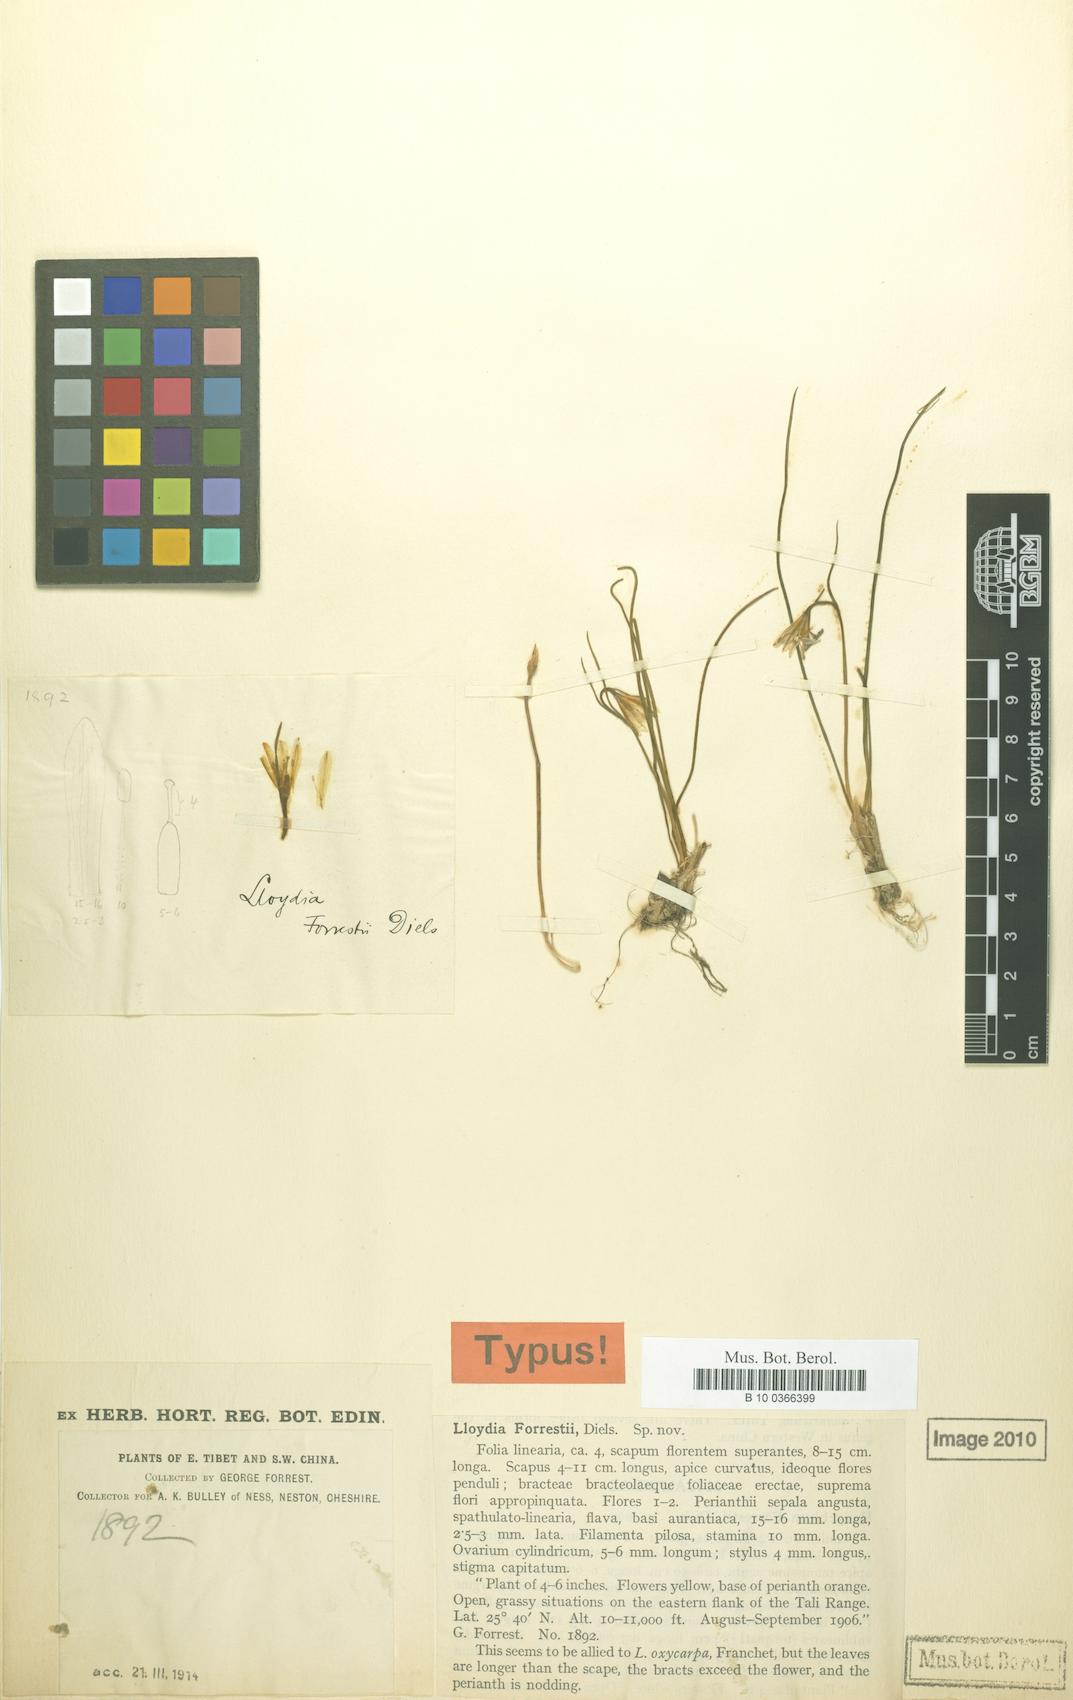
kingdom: Plantae
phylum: Tracheophyta
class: Liliopsida
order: Liliales
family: Liliaceae
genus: Gagea
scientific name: Gagea oxycarpa
